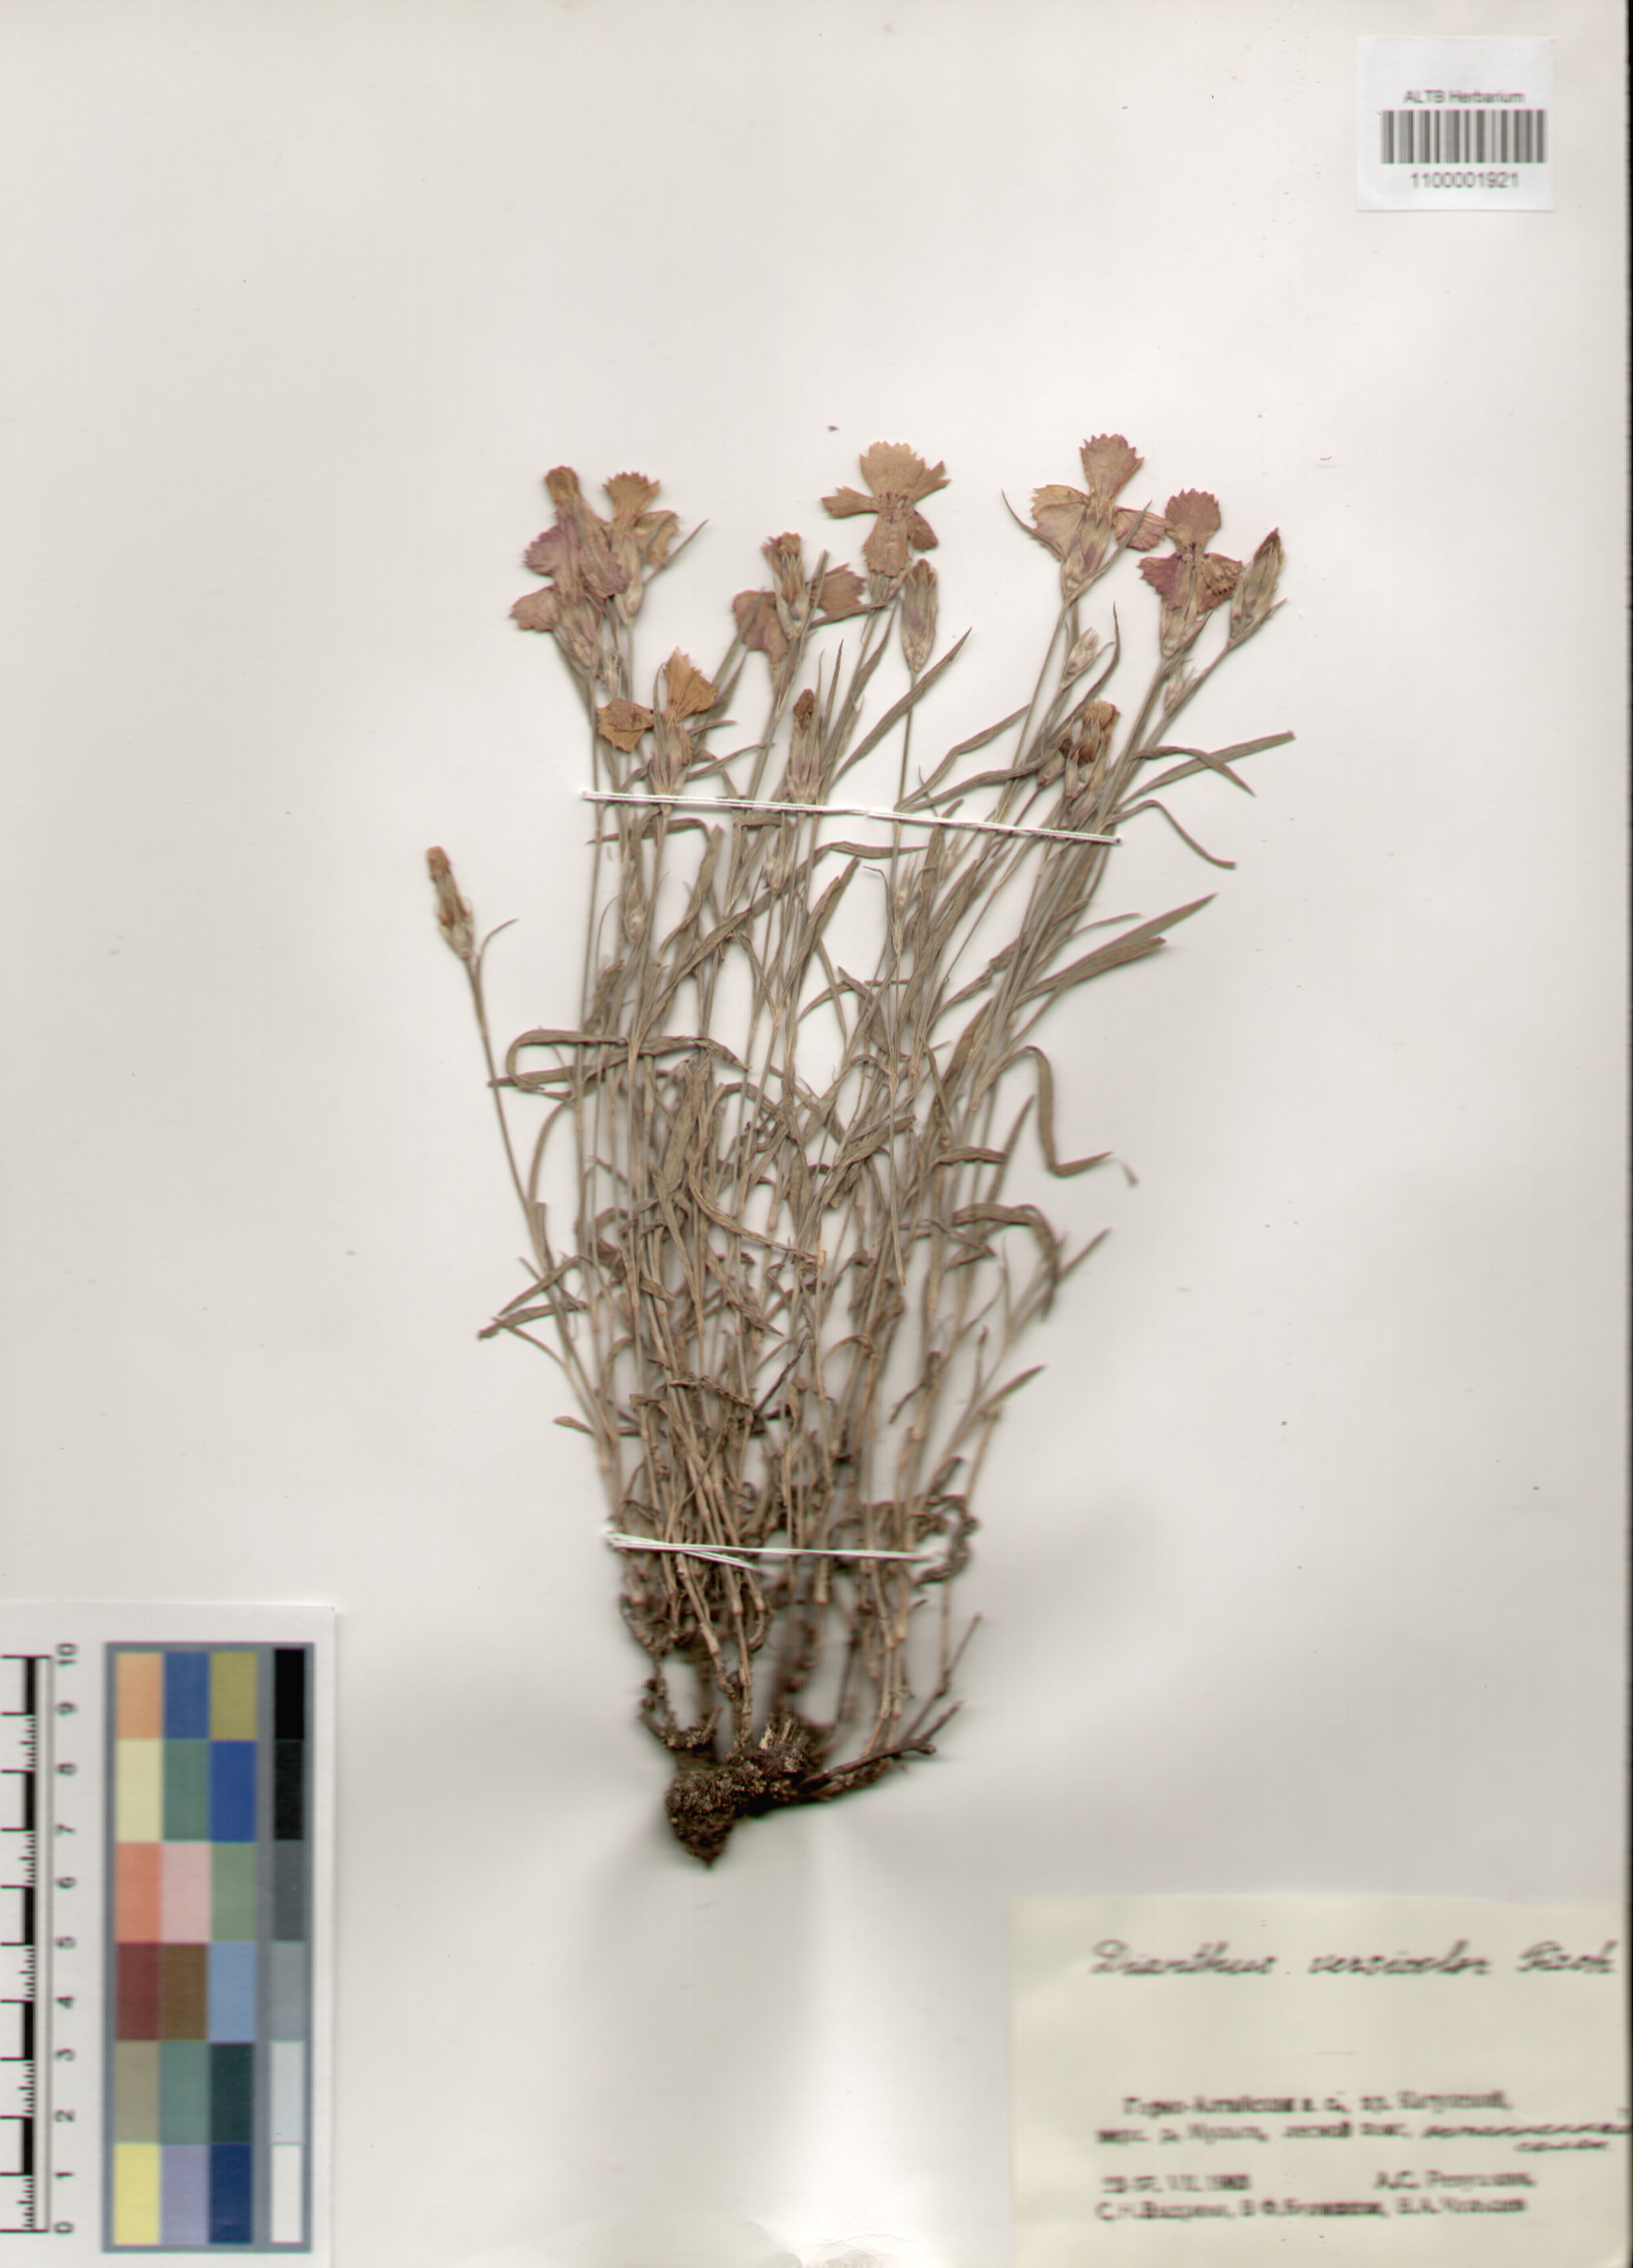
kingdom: Plantae
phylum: Tracheophyta
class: Magnoliopsida
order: Caryophyllales
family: Caryophyllaceae
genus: Dianthus
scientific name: Dianthus chinensis
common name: Rainbow pink
